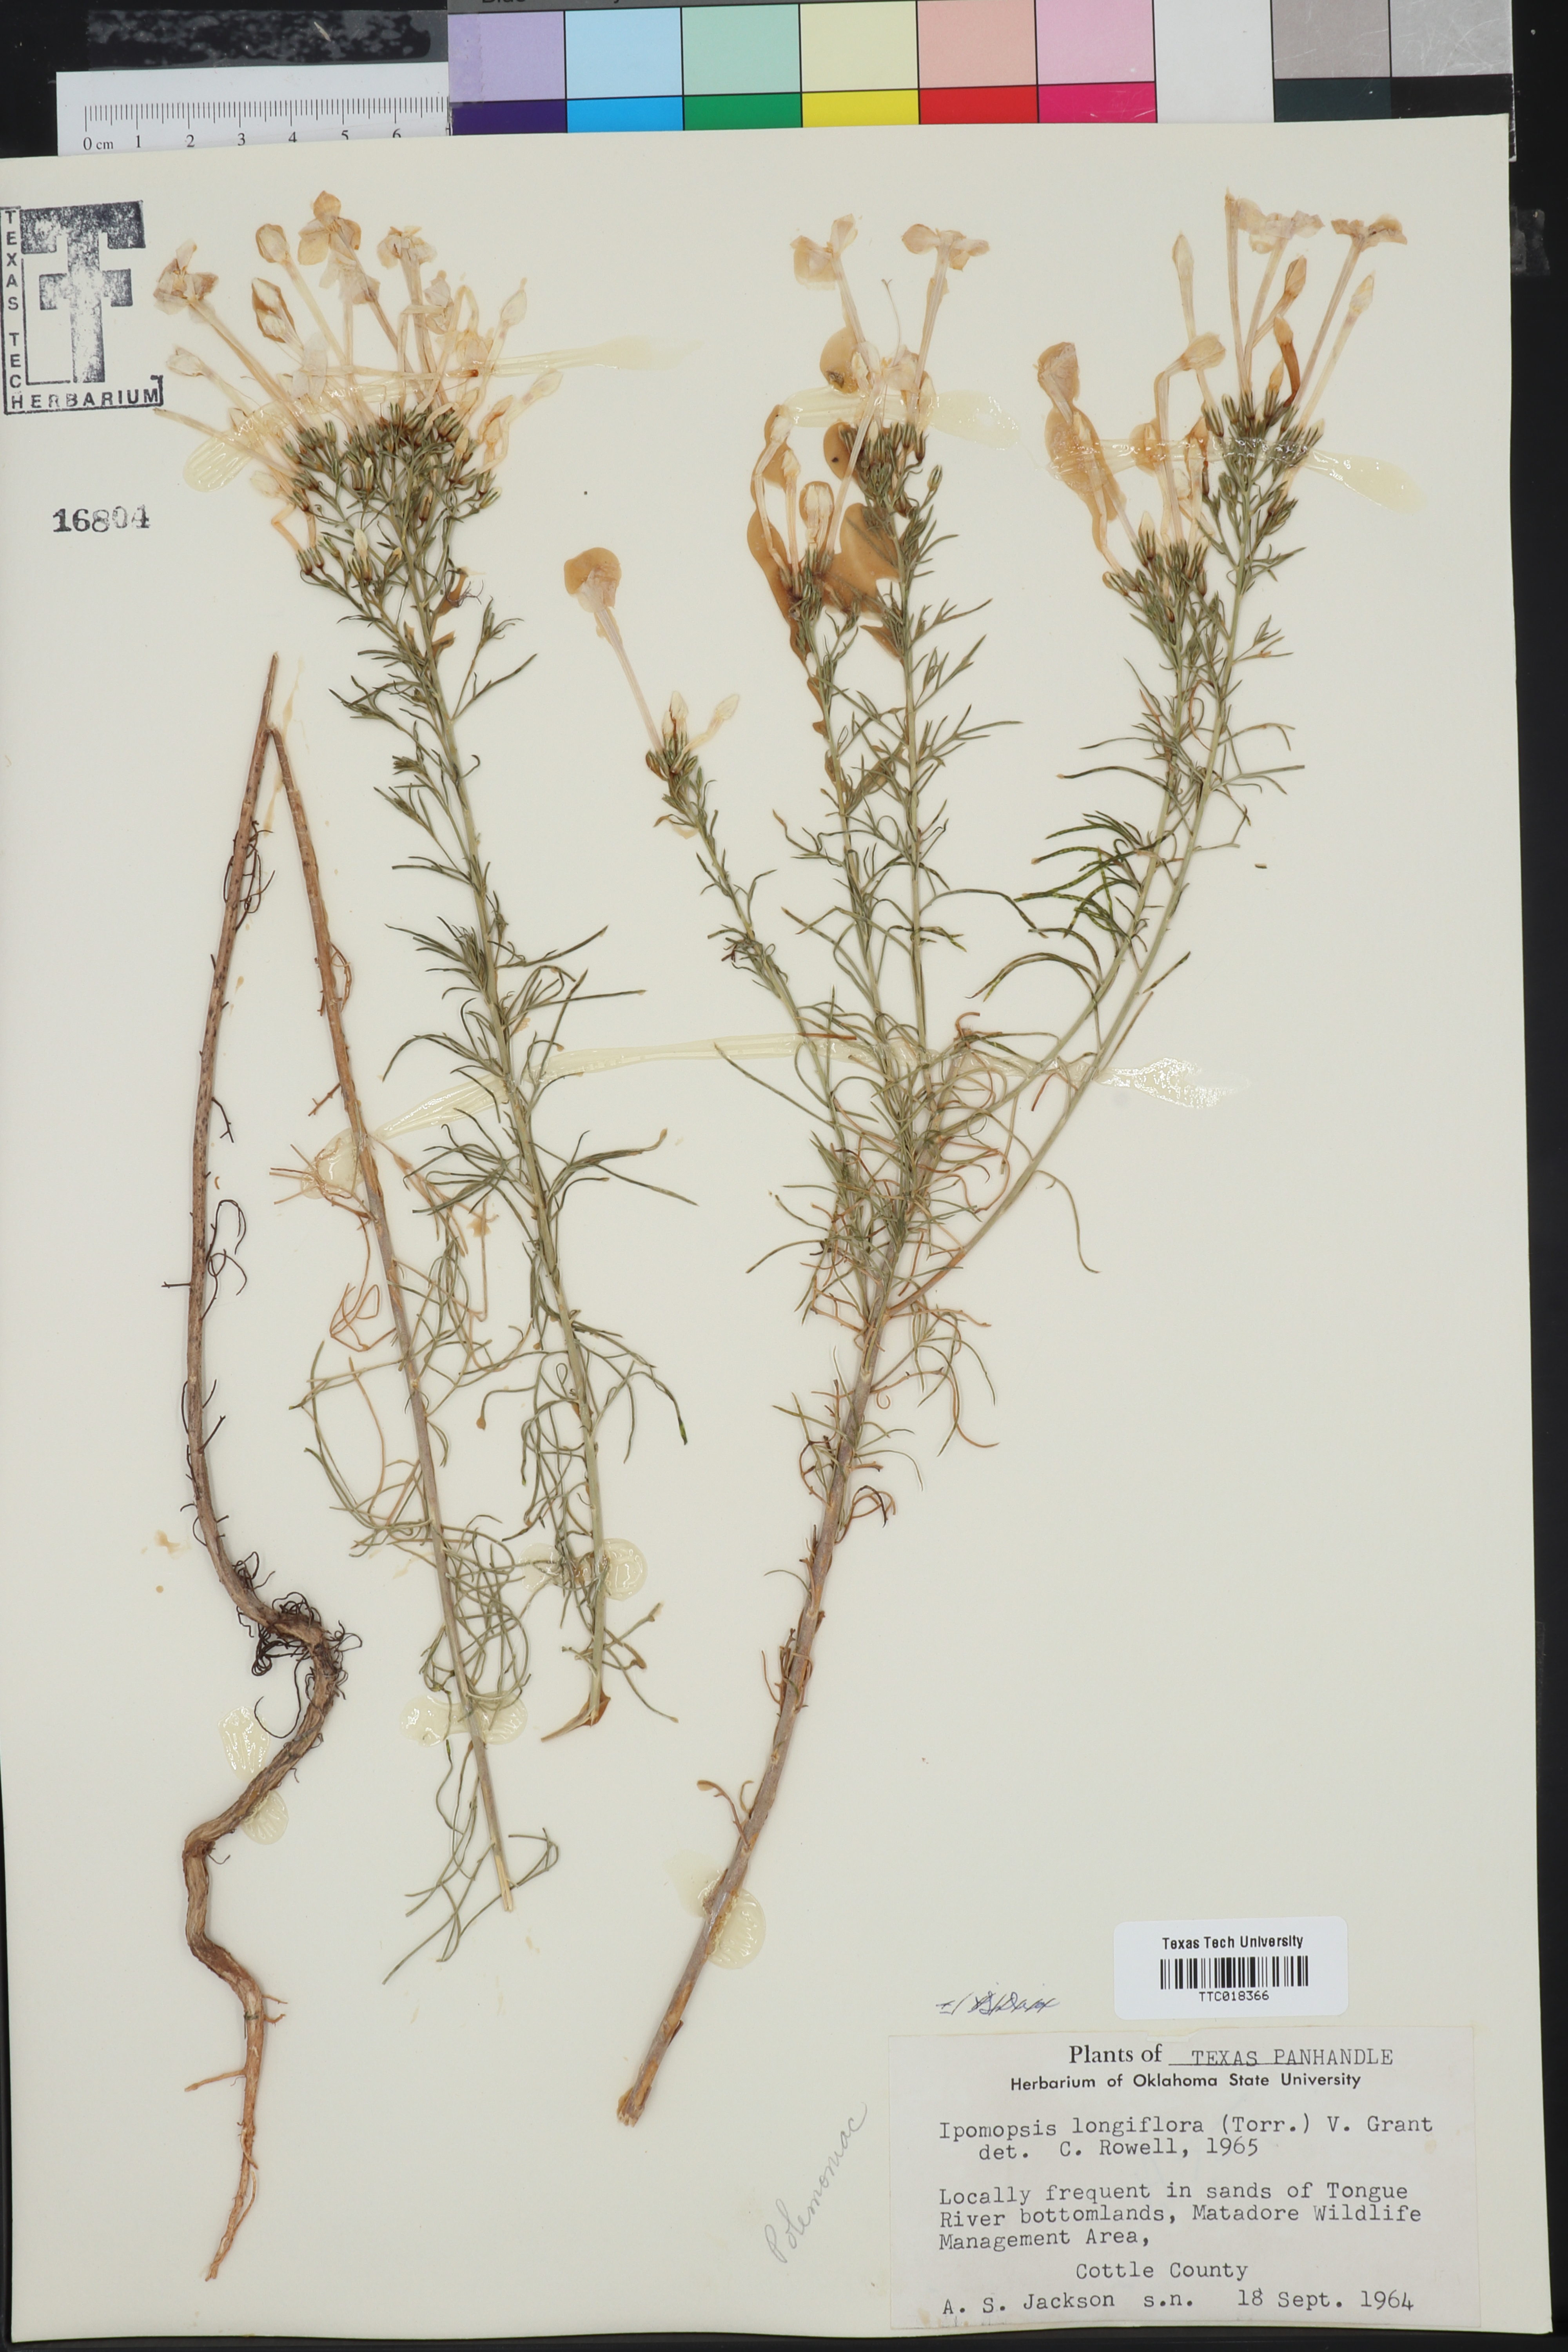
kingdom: Plantae
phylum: Tracheophyta
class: Magnoliopsida
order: Ericales
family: Polemoniaceae
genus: Ipomopsis
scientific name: Ipomopsis longiflora
